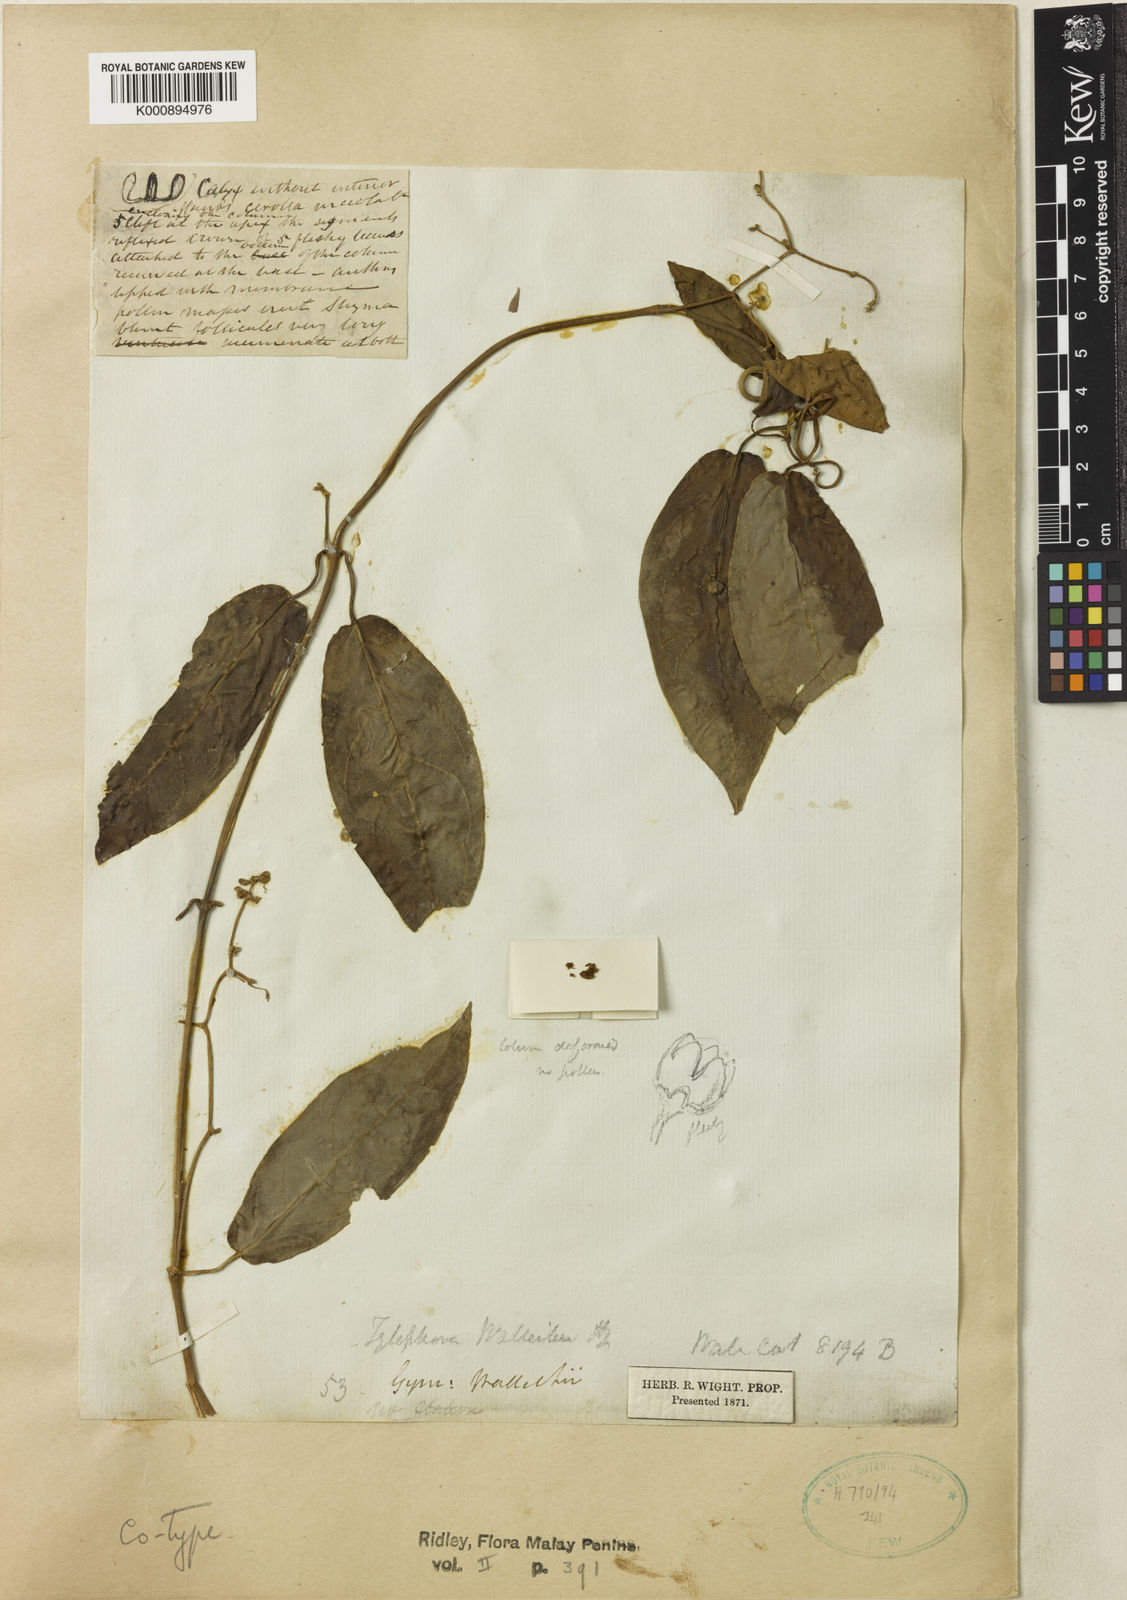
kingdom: Plantae
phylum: Tracheophyta
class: Magnoliopsida
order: Gentianales
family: Apocynaceae
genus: Vincetoxicum
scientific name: Vincetoxicum ventricosum
